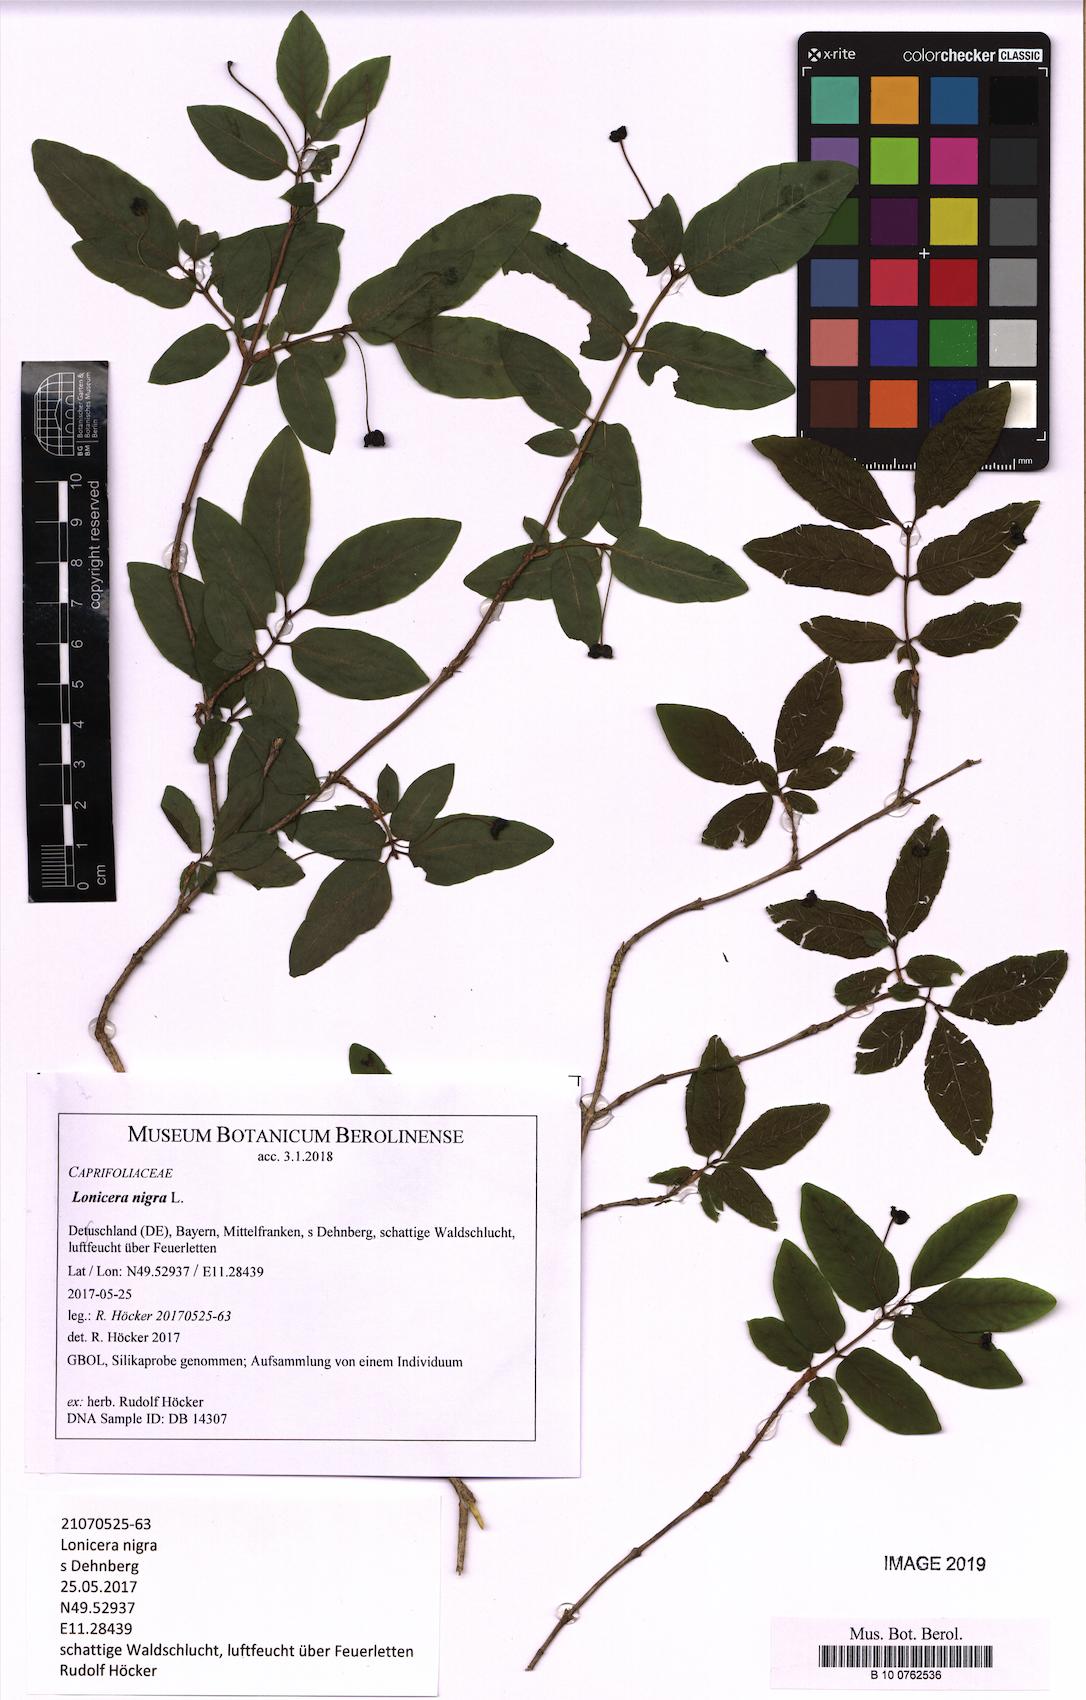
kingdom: Plantae
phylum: Tracheophyta
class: Magnoliopsida
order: Dipsacales
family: Caprifoliaceae
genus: Lonicera
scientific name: Lonicera nigra
